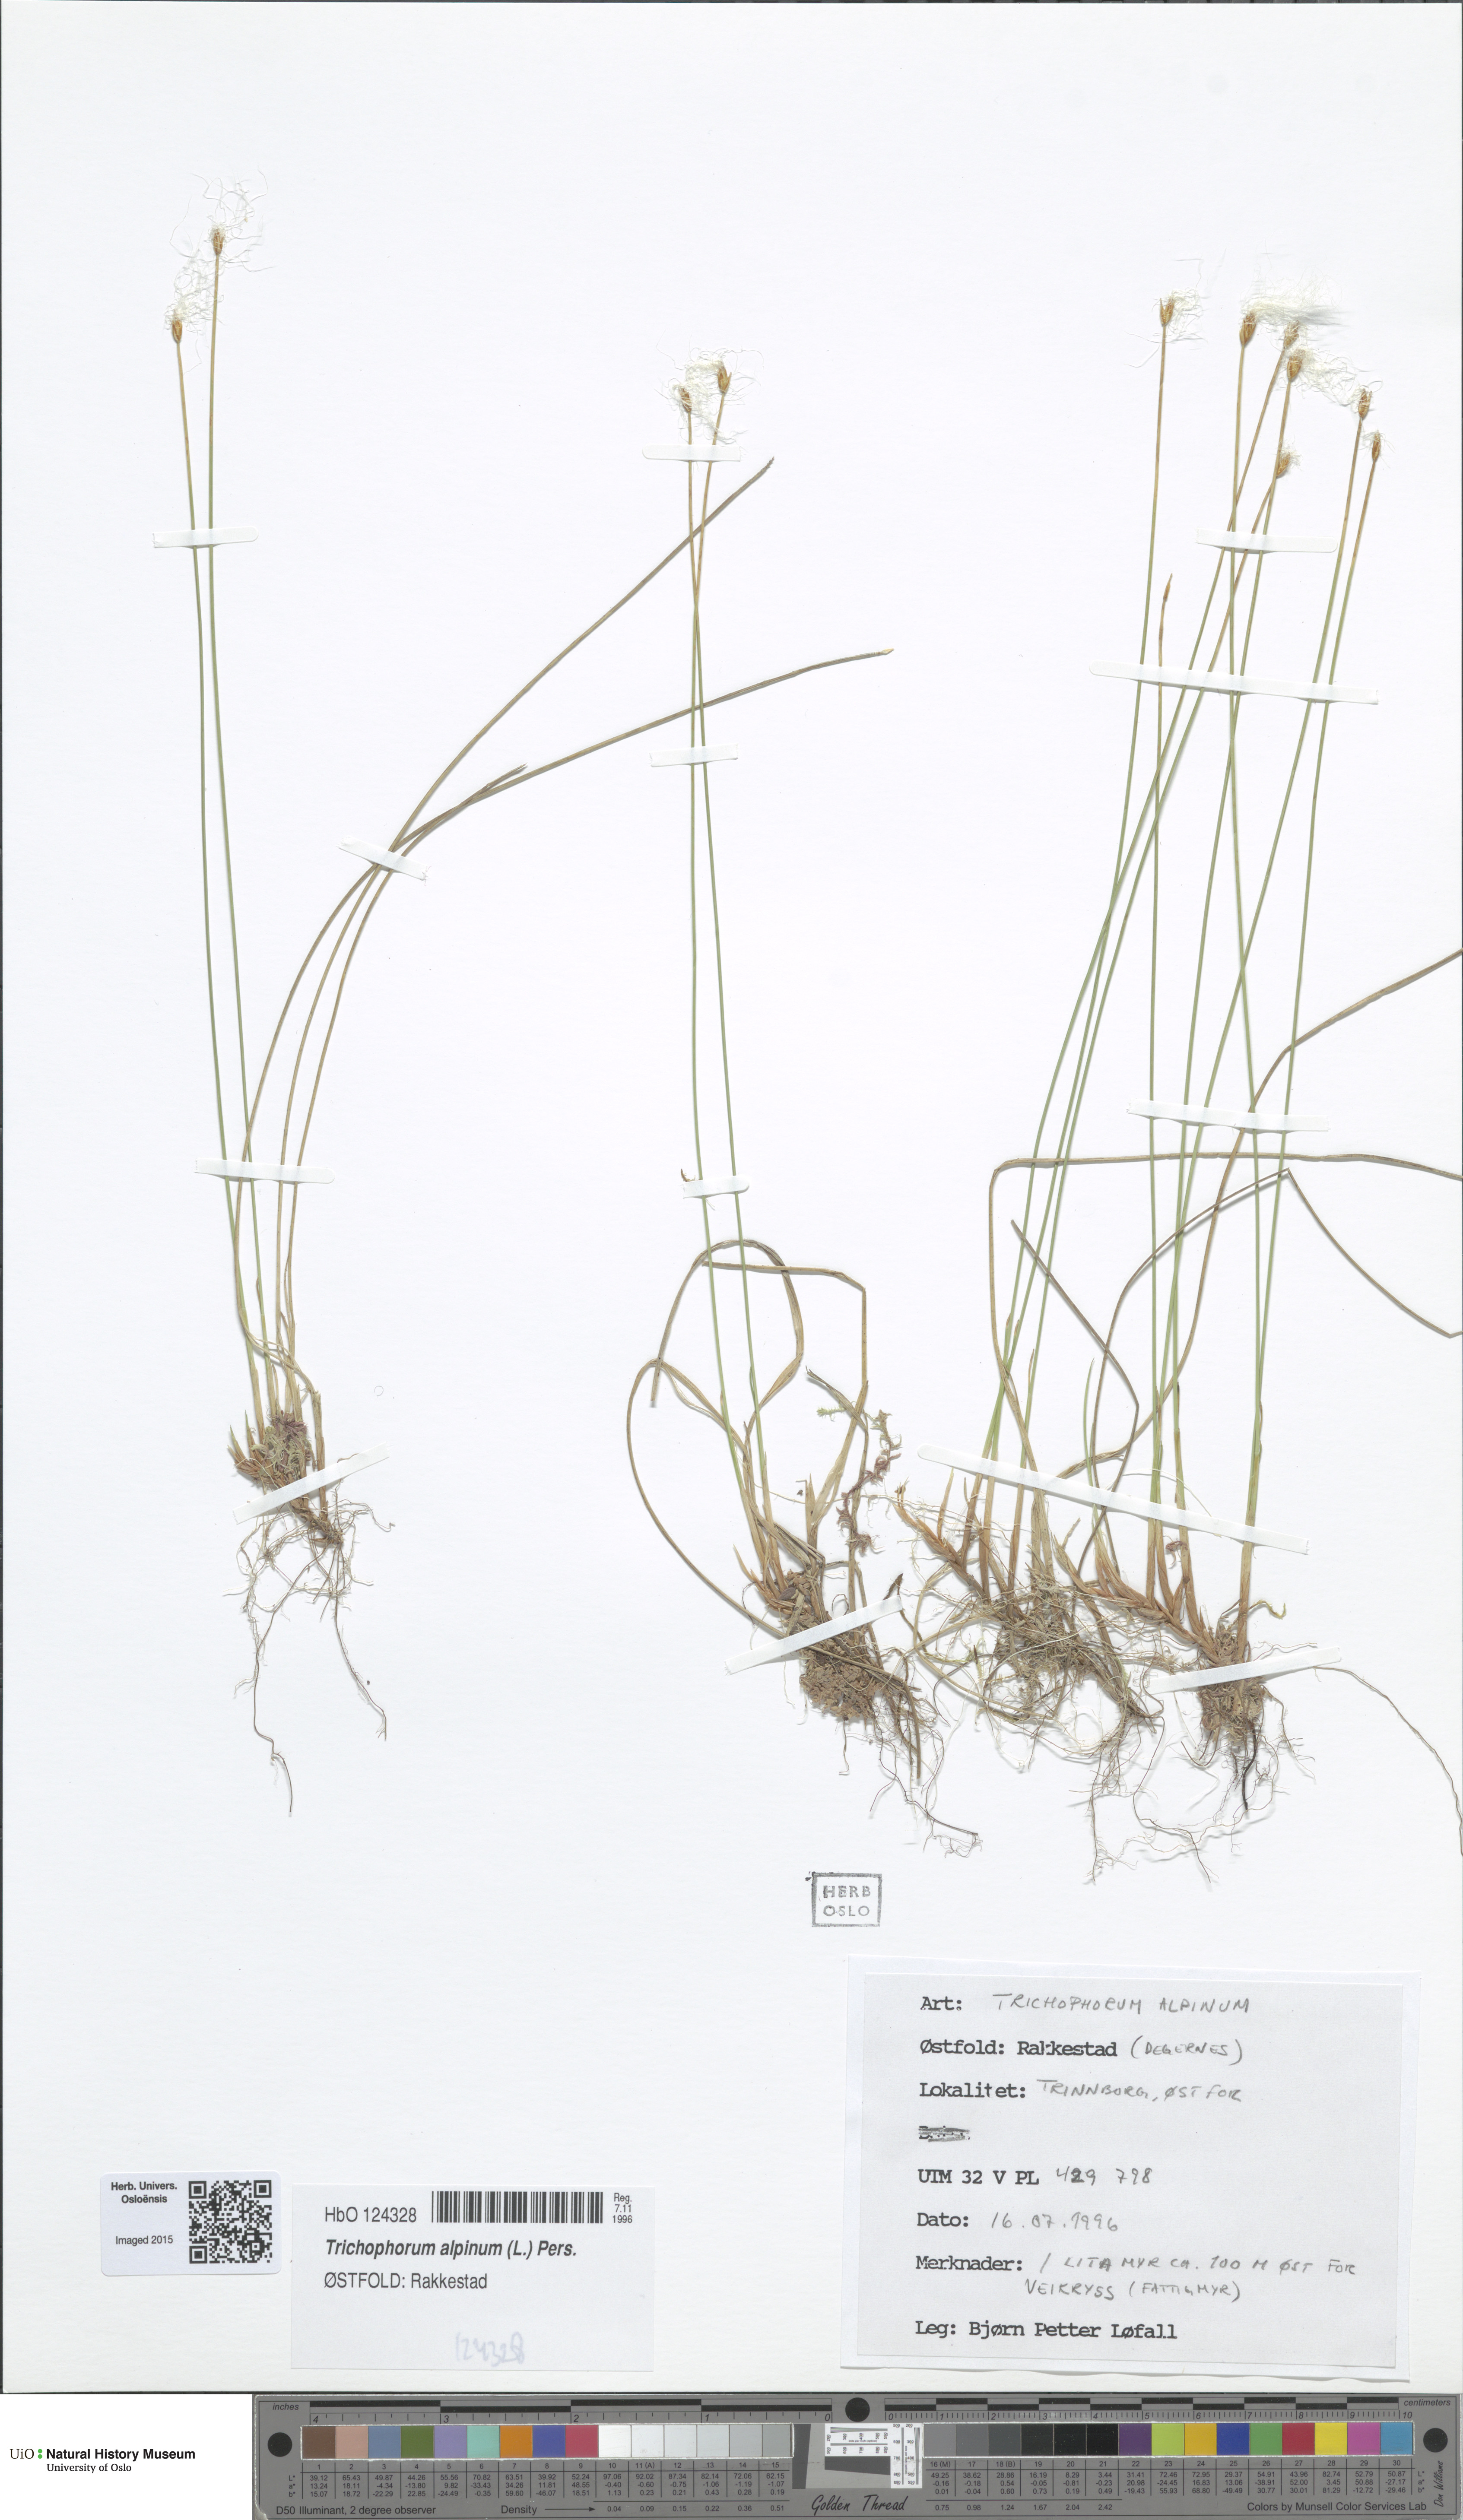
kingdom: Plantae
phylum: Tracheophyta
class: Liliopsida
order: Poales
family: Cyperaceae
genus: Trichophorum
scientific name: Trichophorum alpinum
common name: Alpine bulrush
